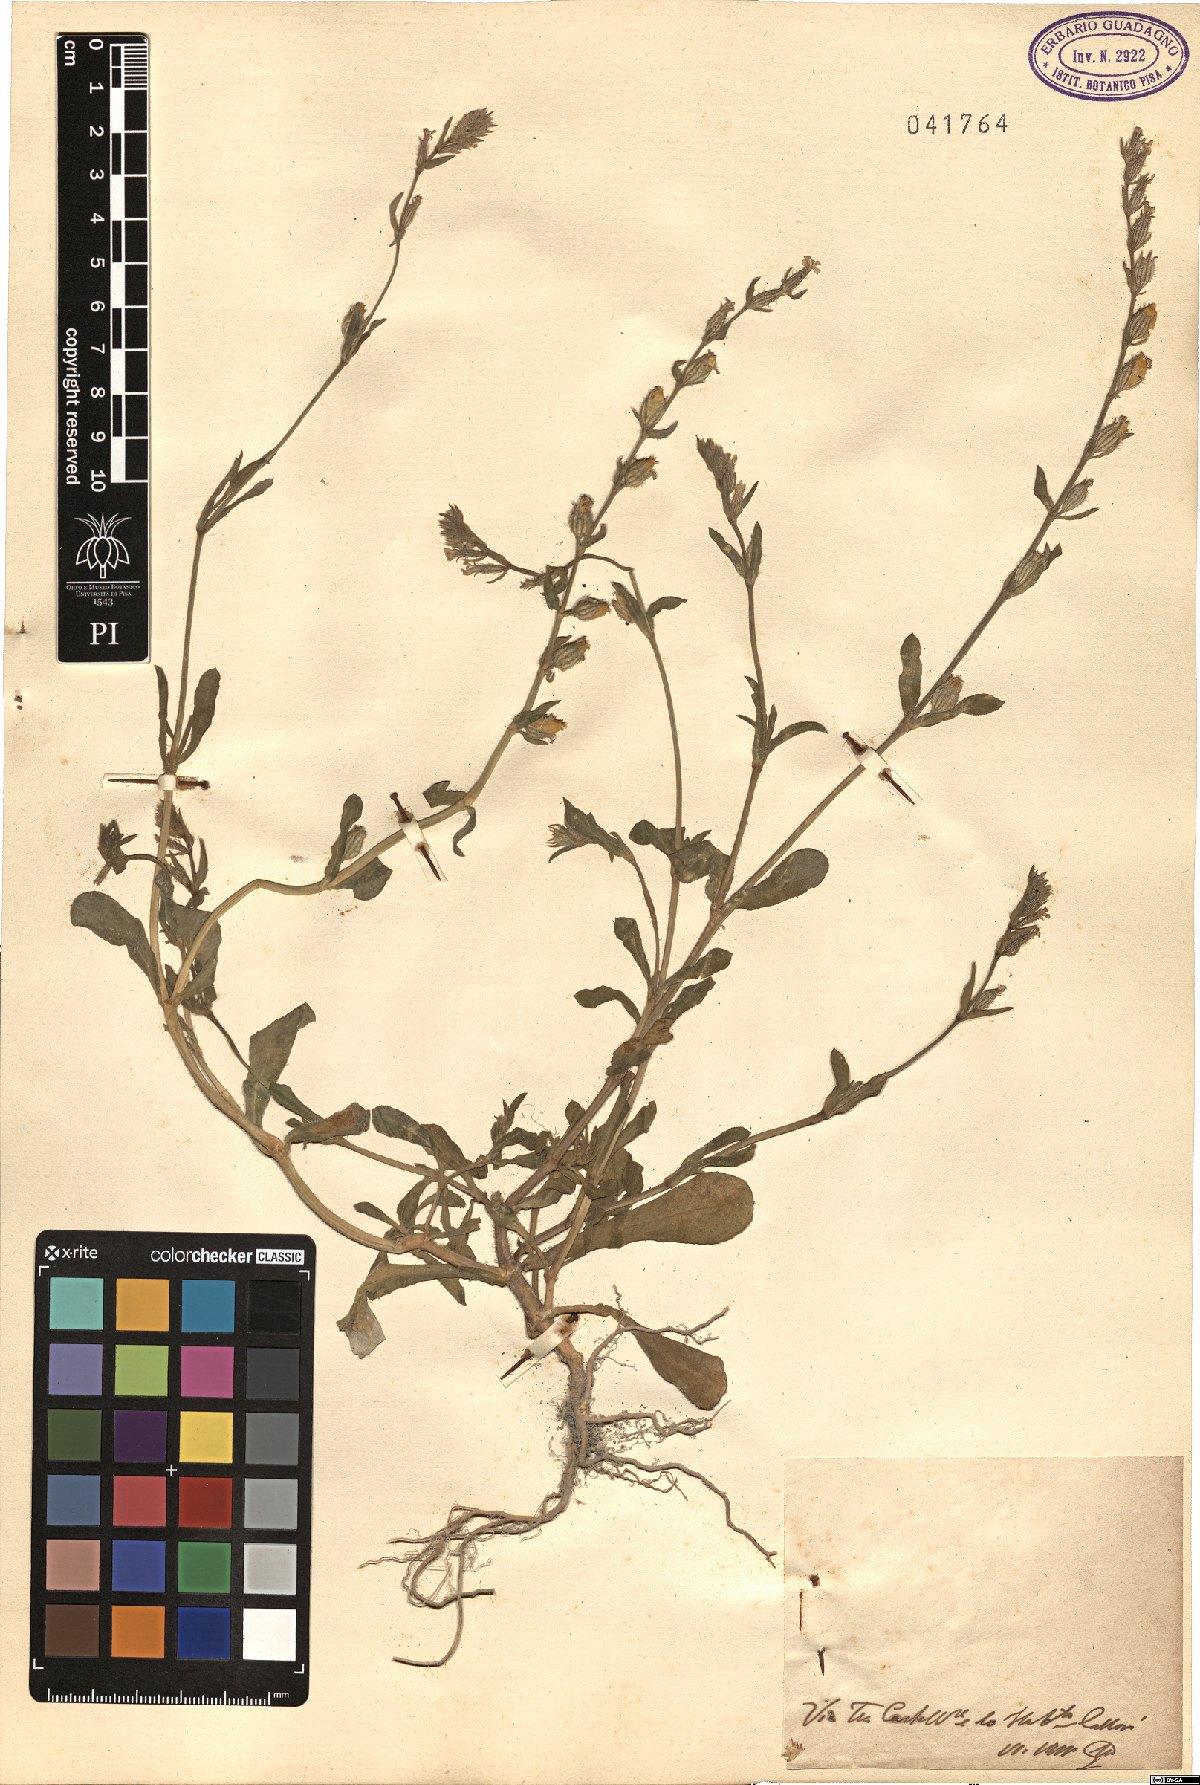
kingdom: Plantae
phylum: Tracheophyta
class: Magnoliopsida
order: Caryophyllales
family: Caryophyllaceae
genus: Silene
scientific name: Silene
